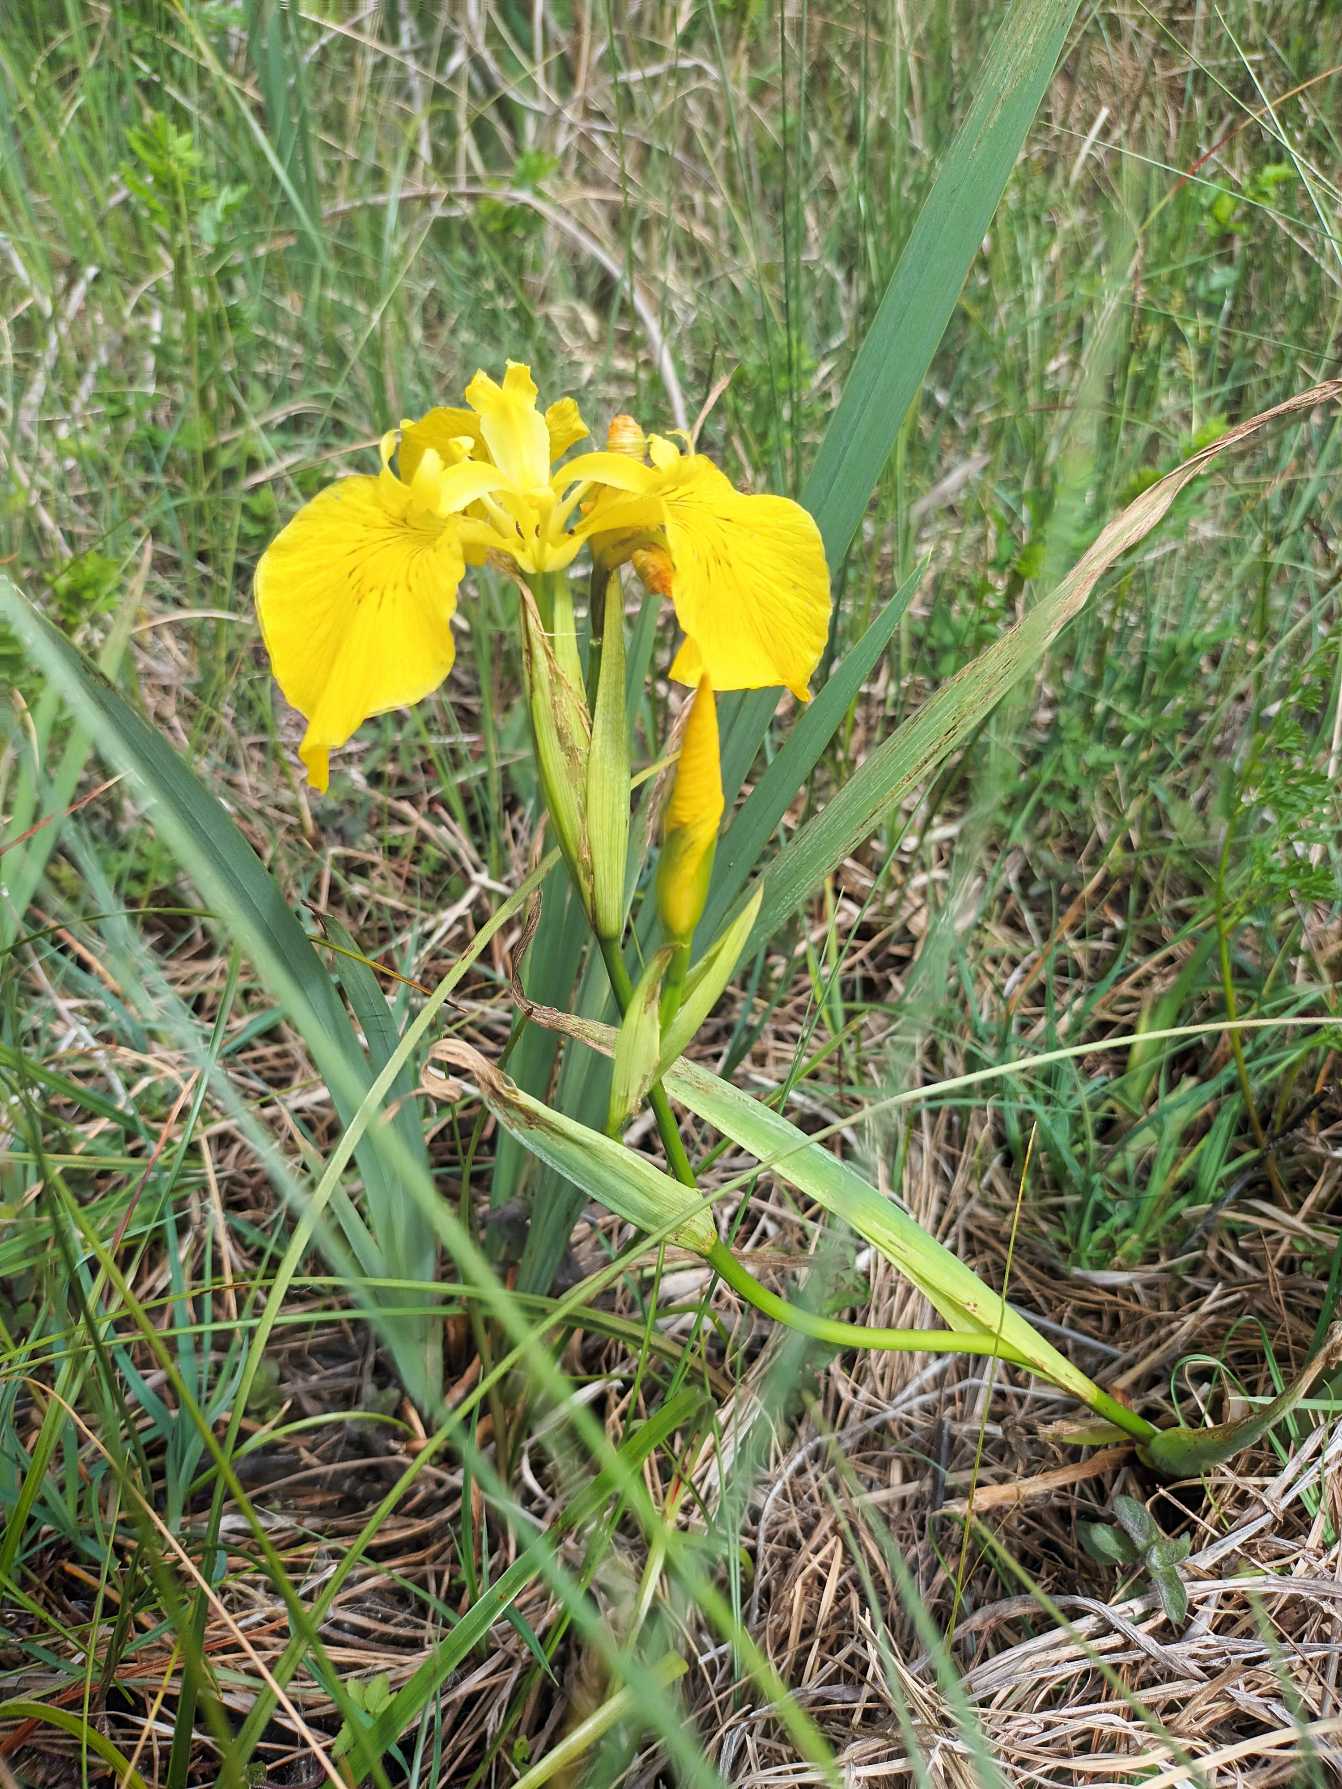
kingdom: Plantae
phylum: Tracheophyta
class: Liliopsida
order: Asparagales
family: Iridaceae
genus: Iris
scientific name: Iris pseudacorus
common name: Gul iris
